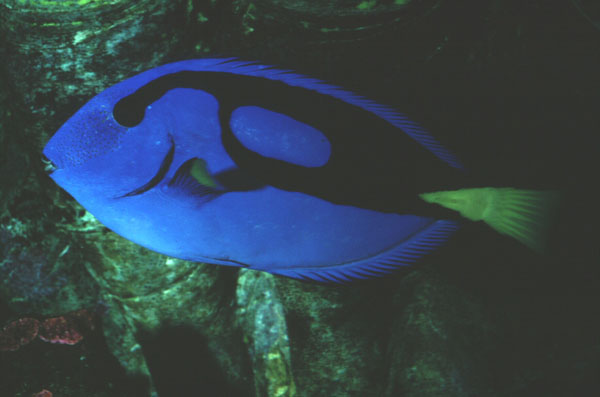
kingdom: Animalia
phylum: Chordata
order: Perciformes
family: Acanthuridae
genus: Paracanthurus
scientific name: Paracanthurus hepatus
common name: Palette surgeonfish
